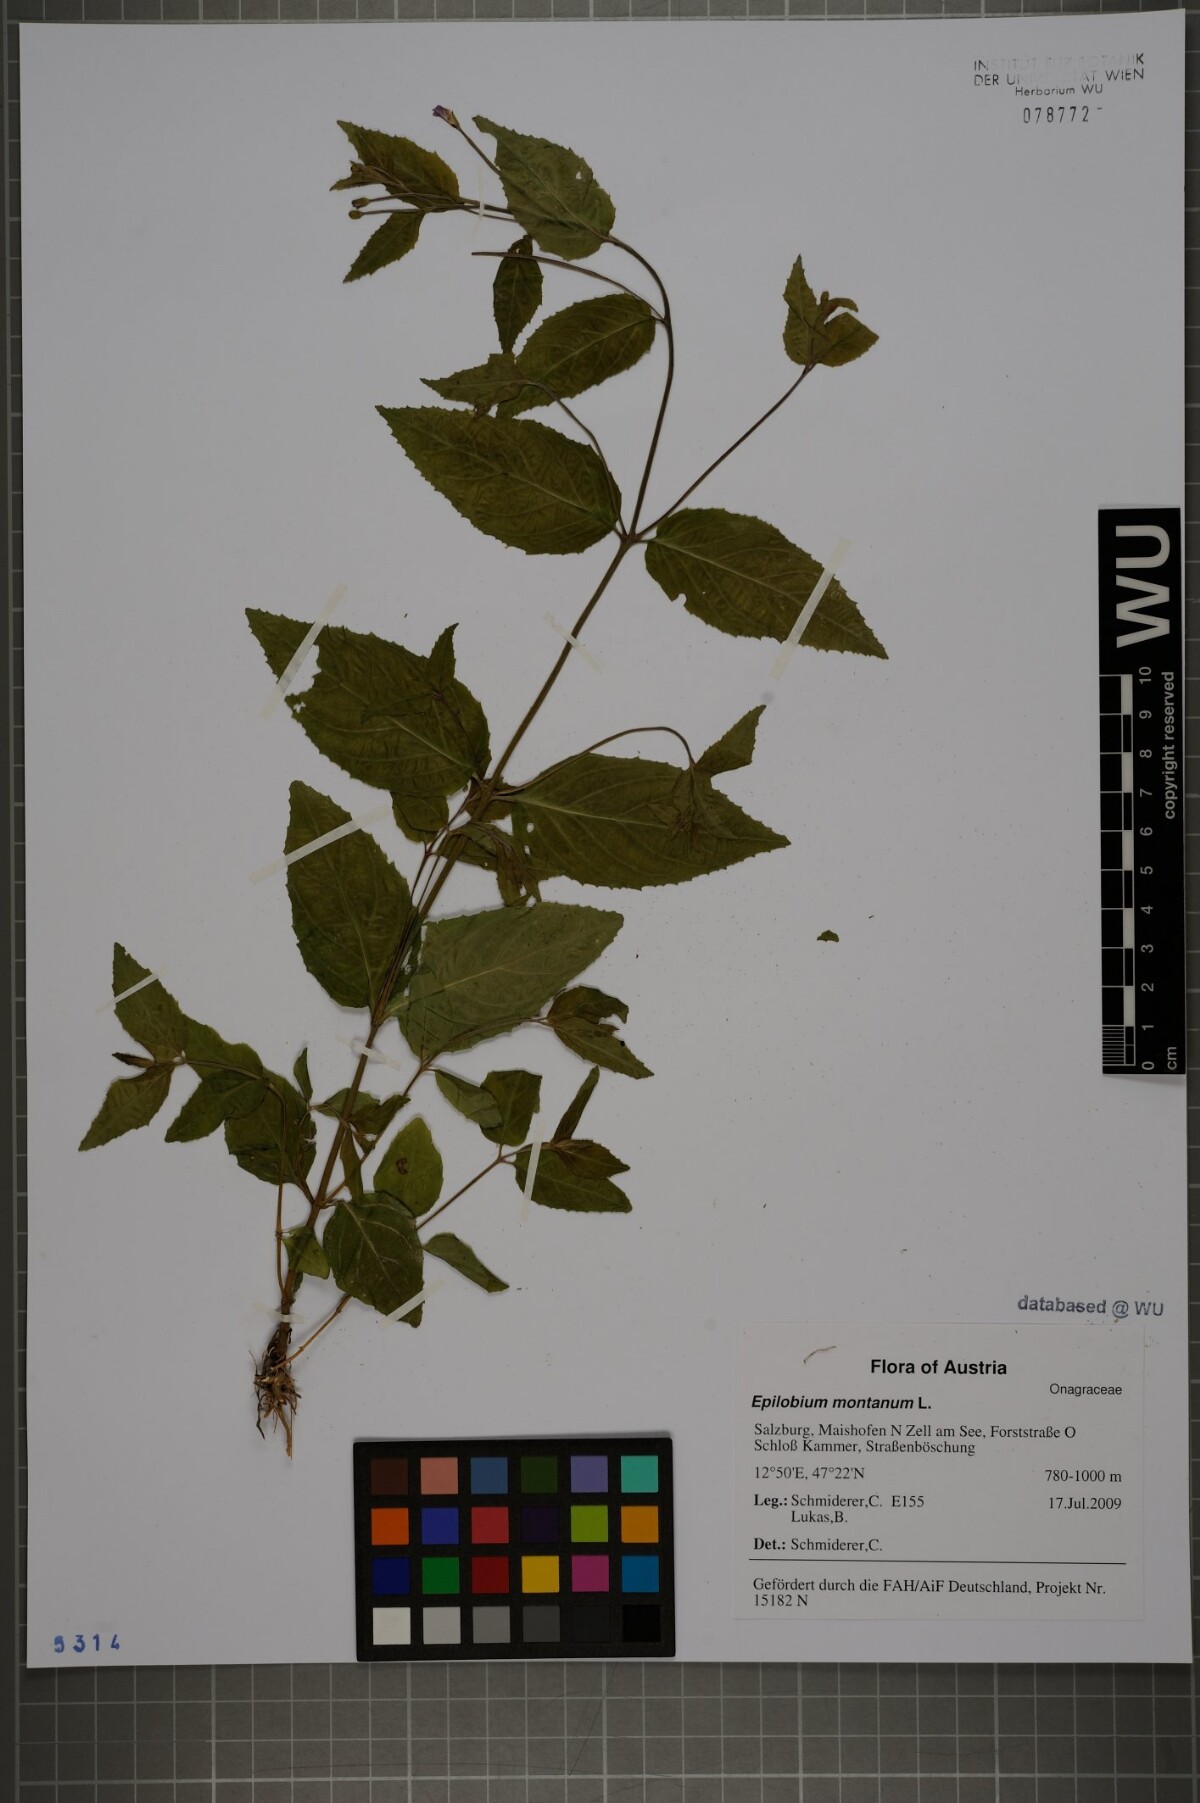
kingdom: Plantae
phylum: Tracheophyta
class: Magnoliopsida
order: Myrtales
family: Onagraceae
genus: Epilobium
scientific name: Epilobium montanum
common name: Broad-leaved willowherb
